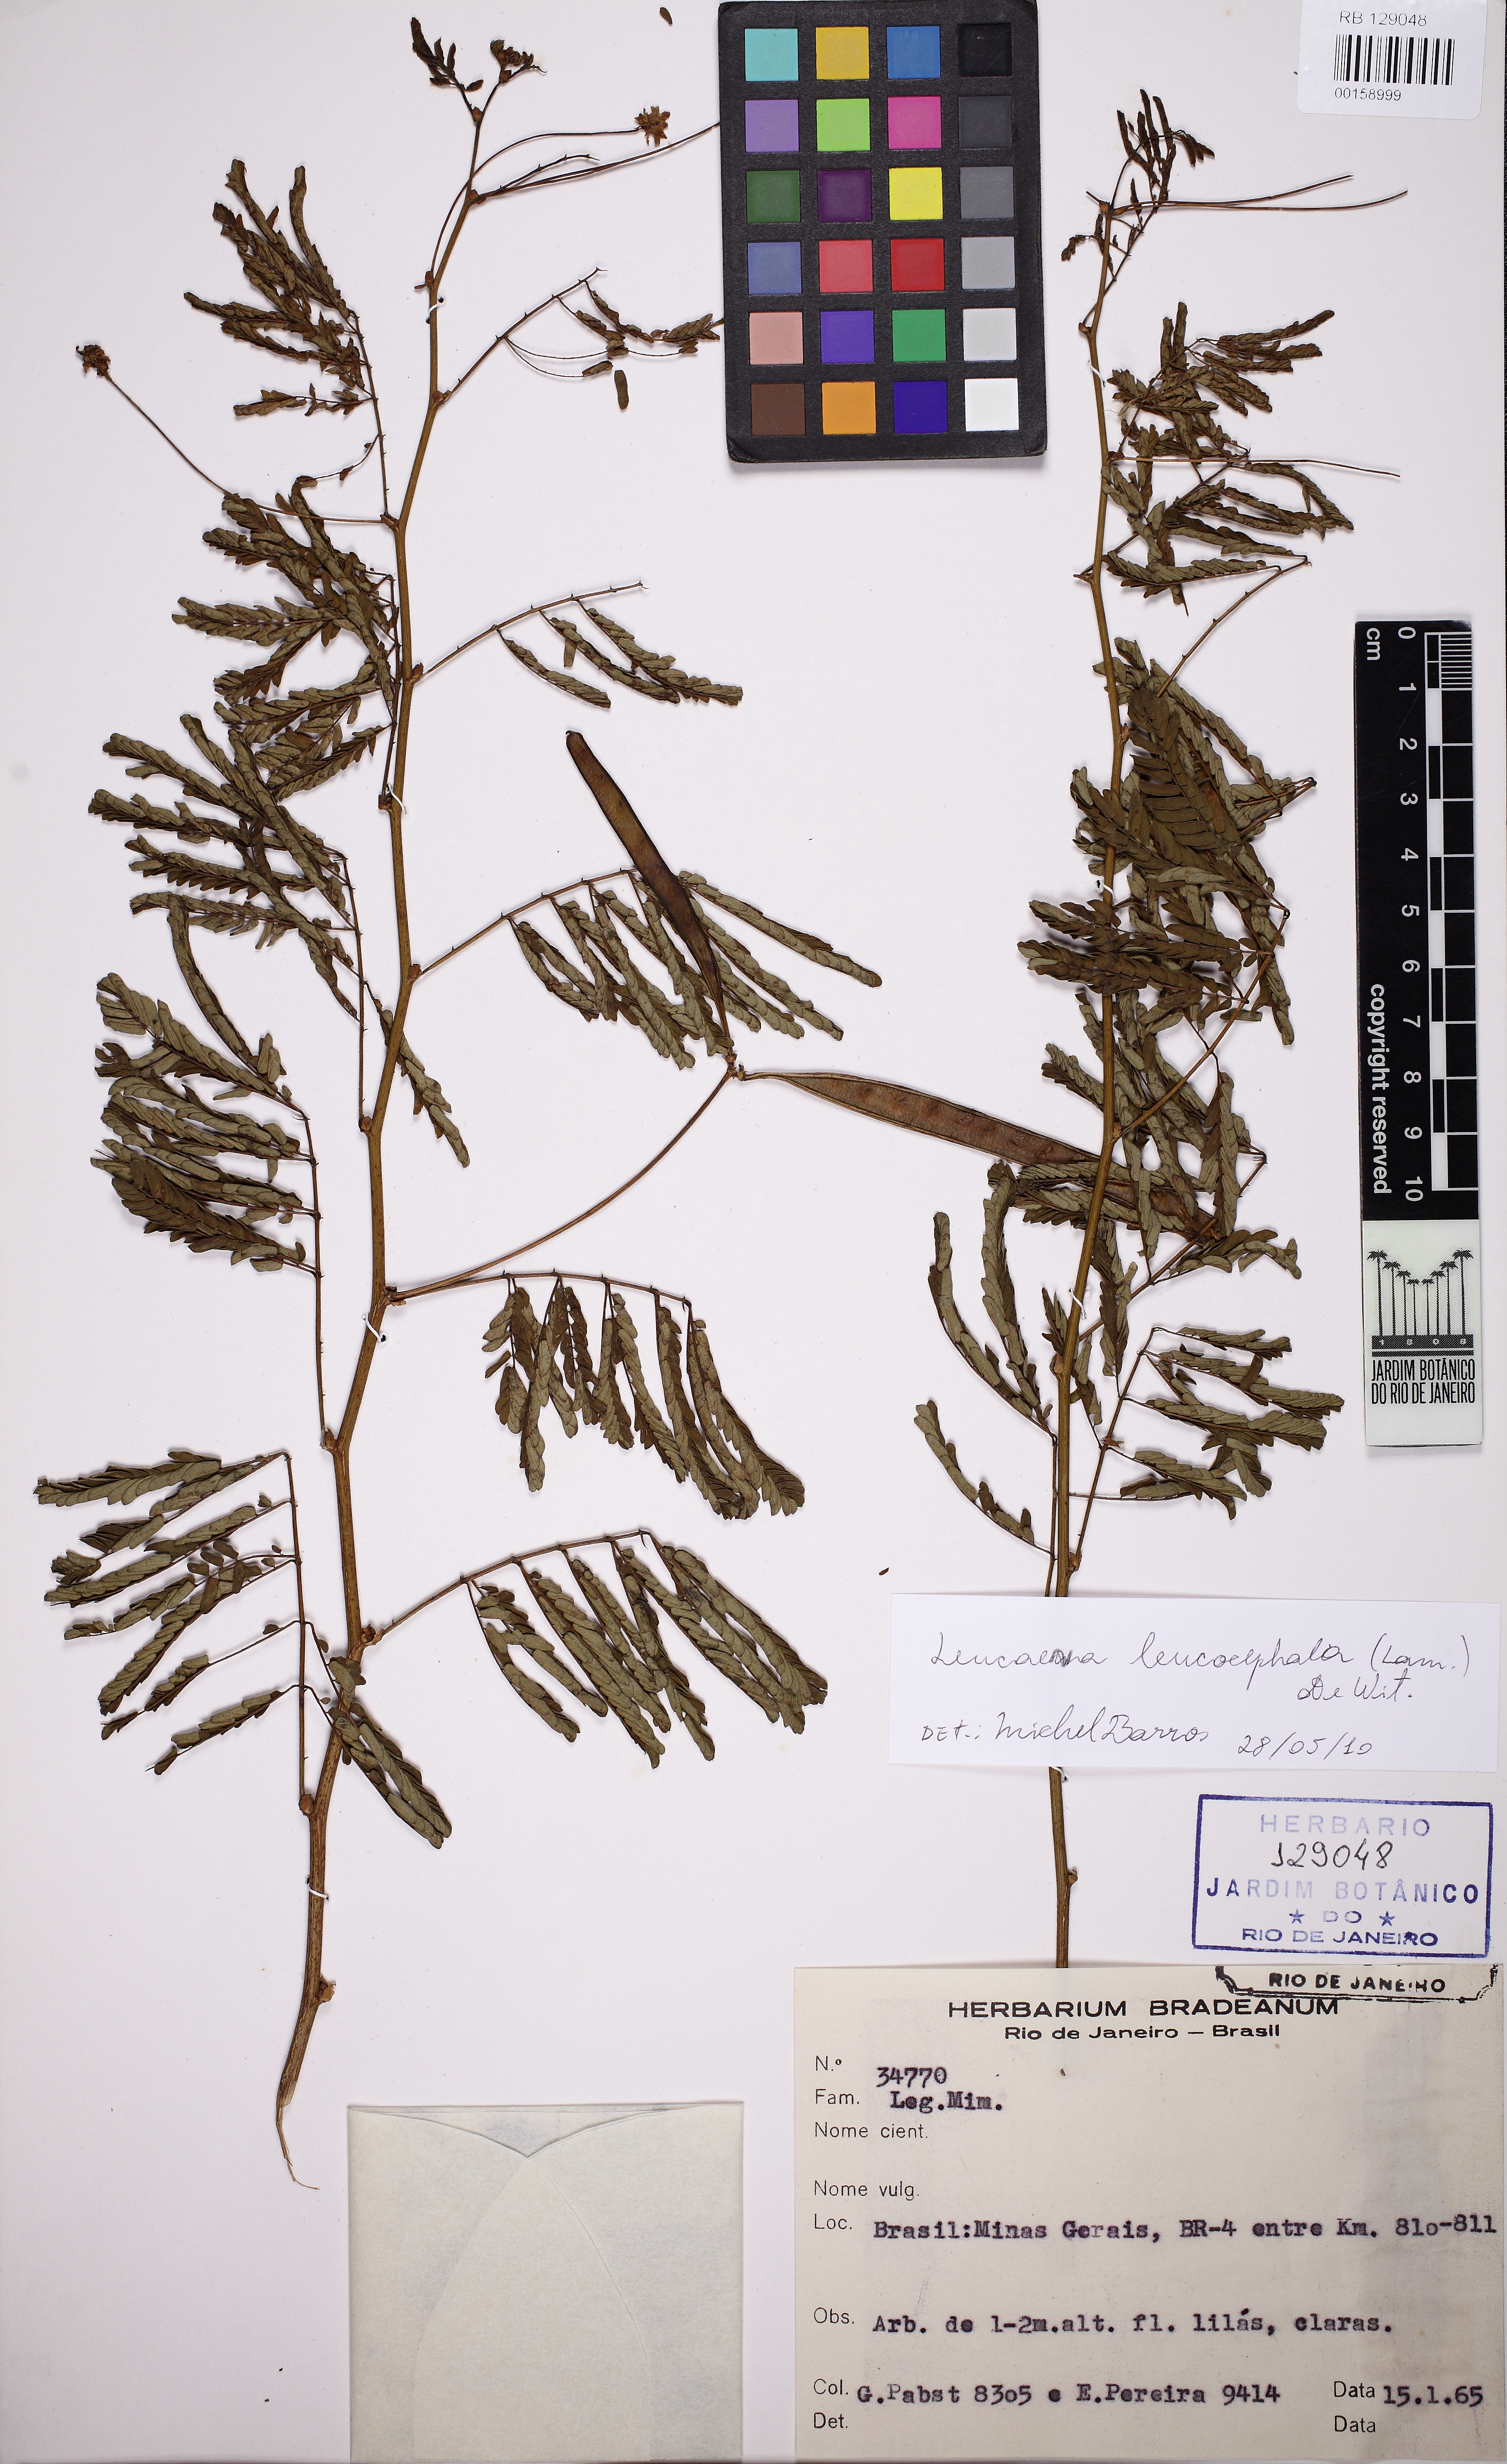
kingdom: Plantae
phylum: Tracheophyta
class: Magnoliopsida
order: Fabales
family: Fabaceae
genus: Leucaena
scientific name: Leucaena leucocephala
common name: White leadtree
